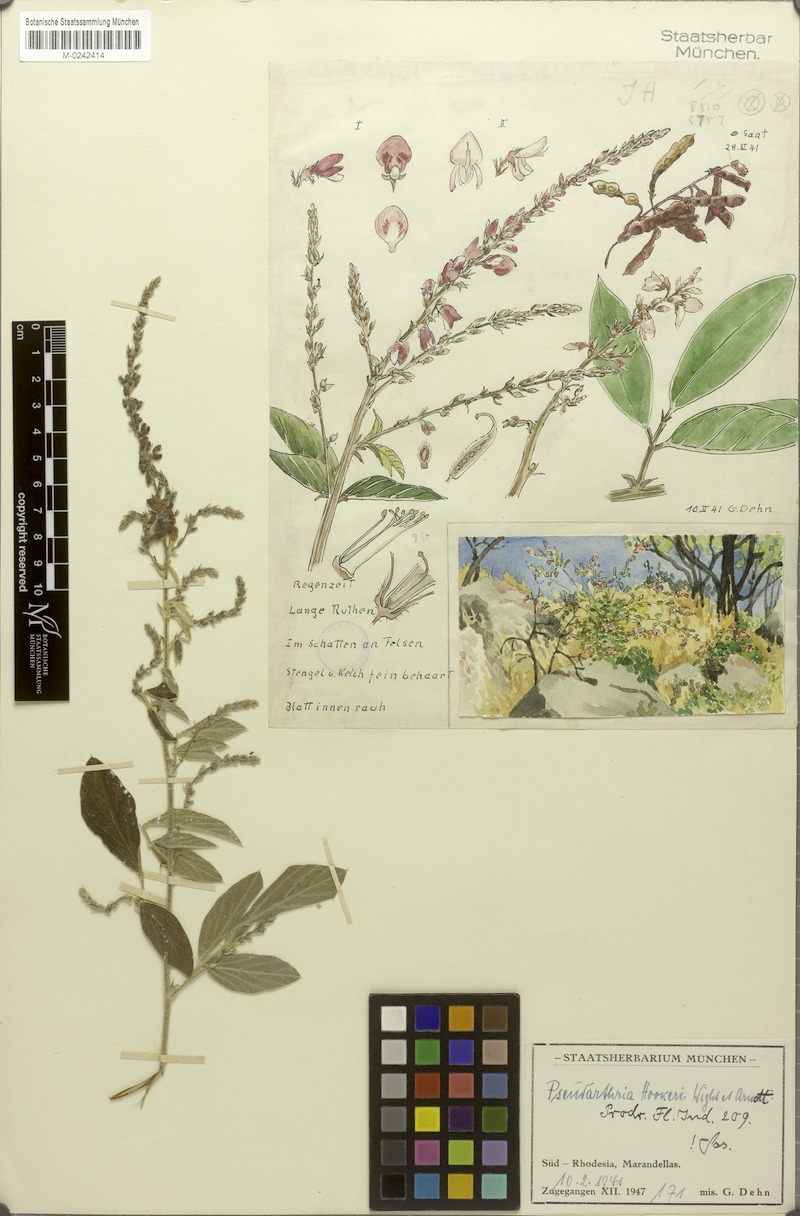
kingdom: Plantae
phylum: Tracheophyta
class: Magnoliopsida
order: Fabales
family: Fabaceae
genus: Pseudarthria
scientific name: Pseudarthria hookeri
